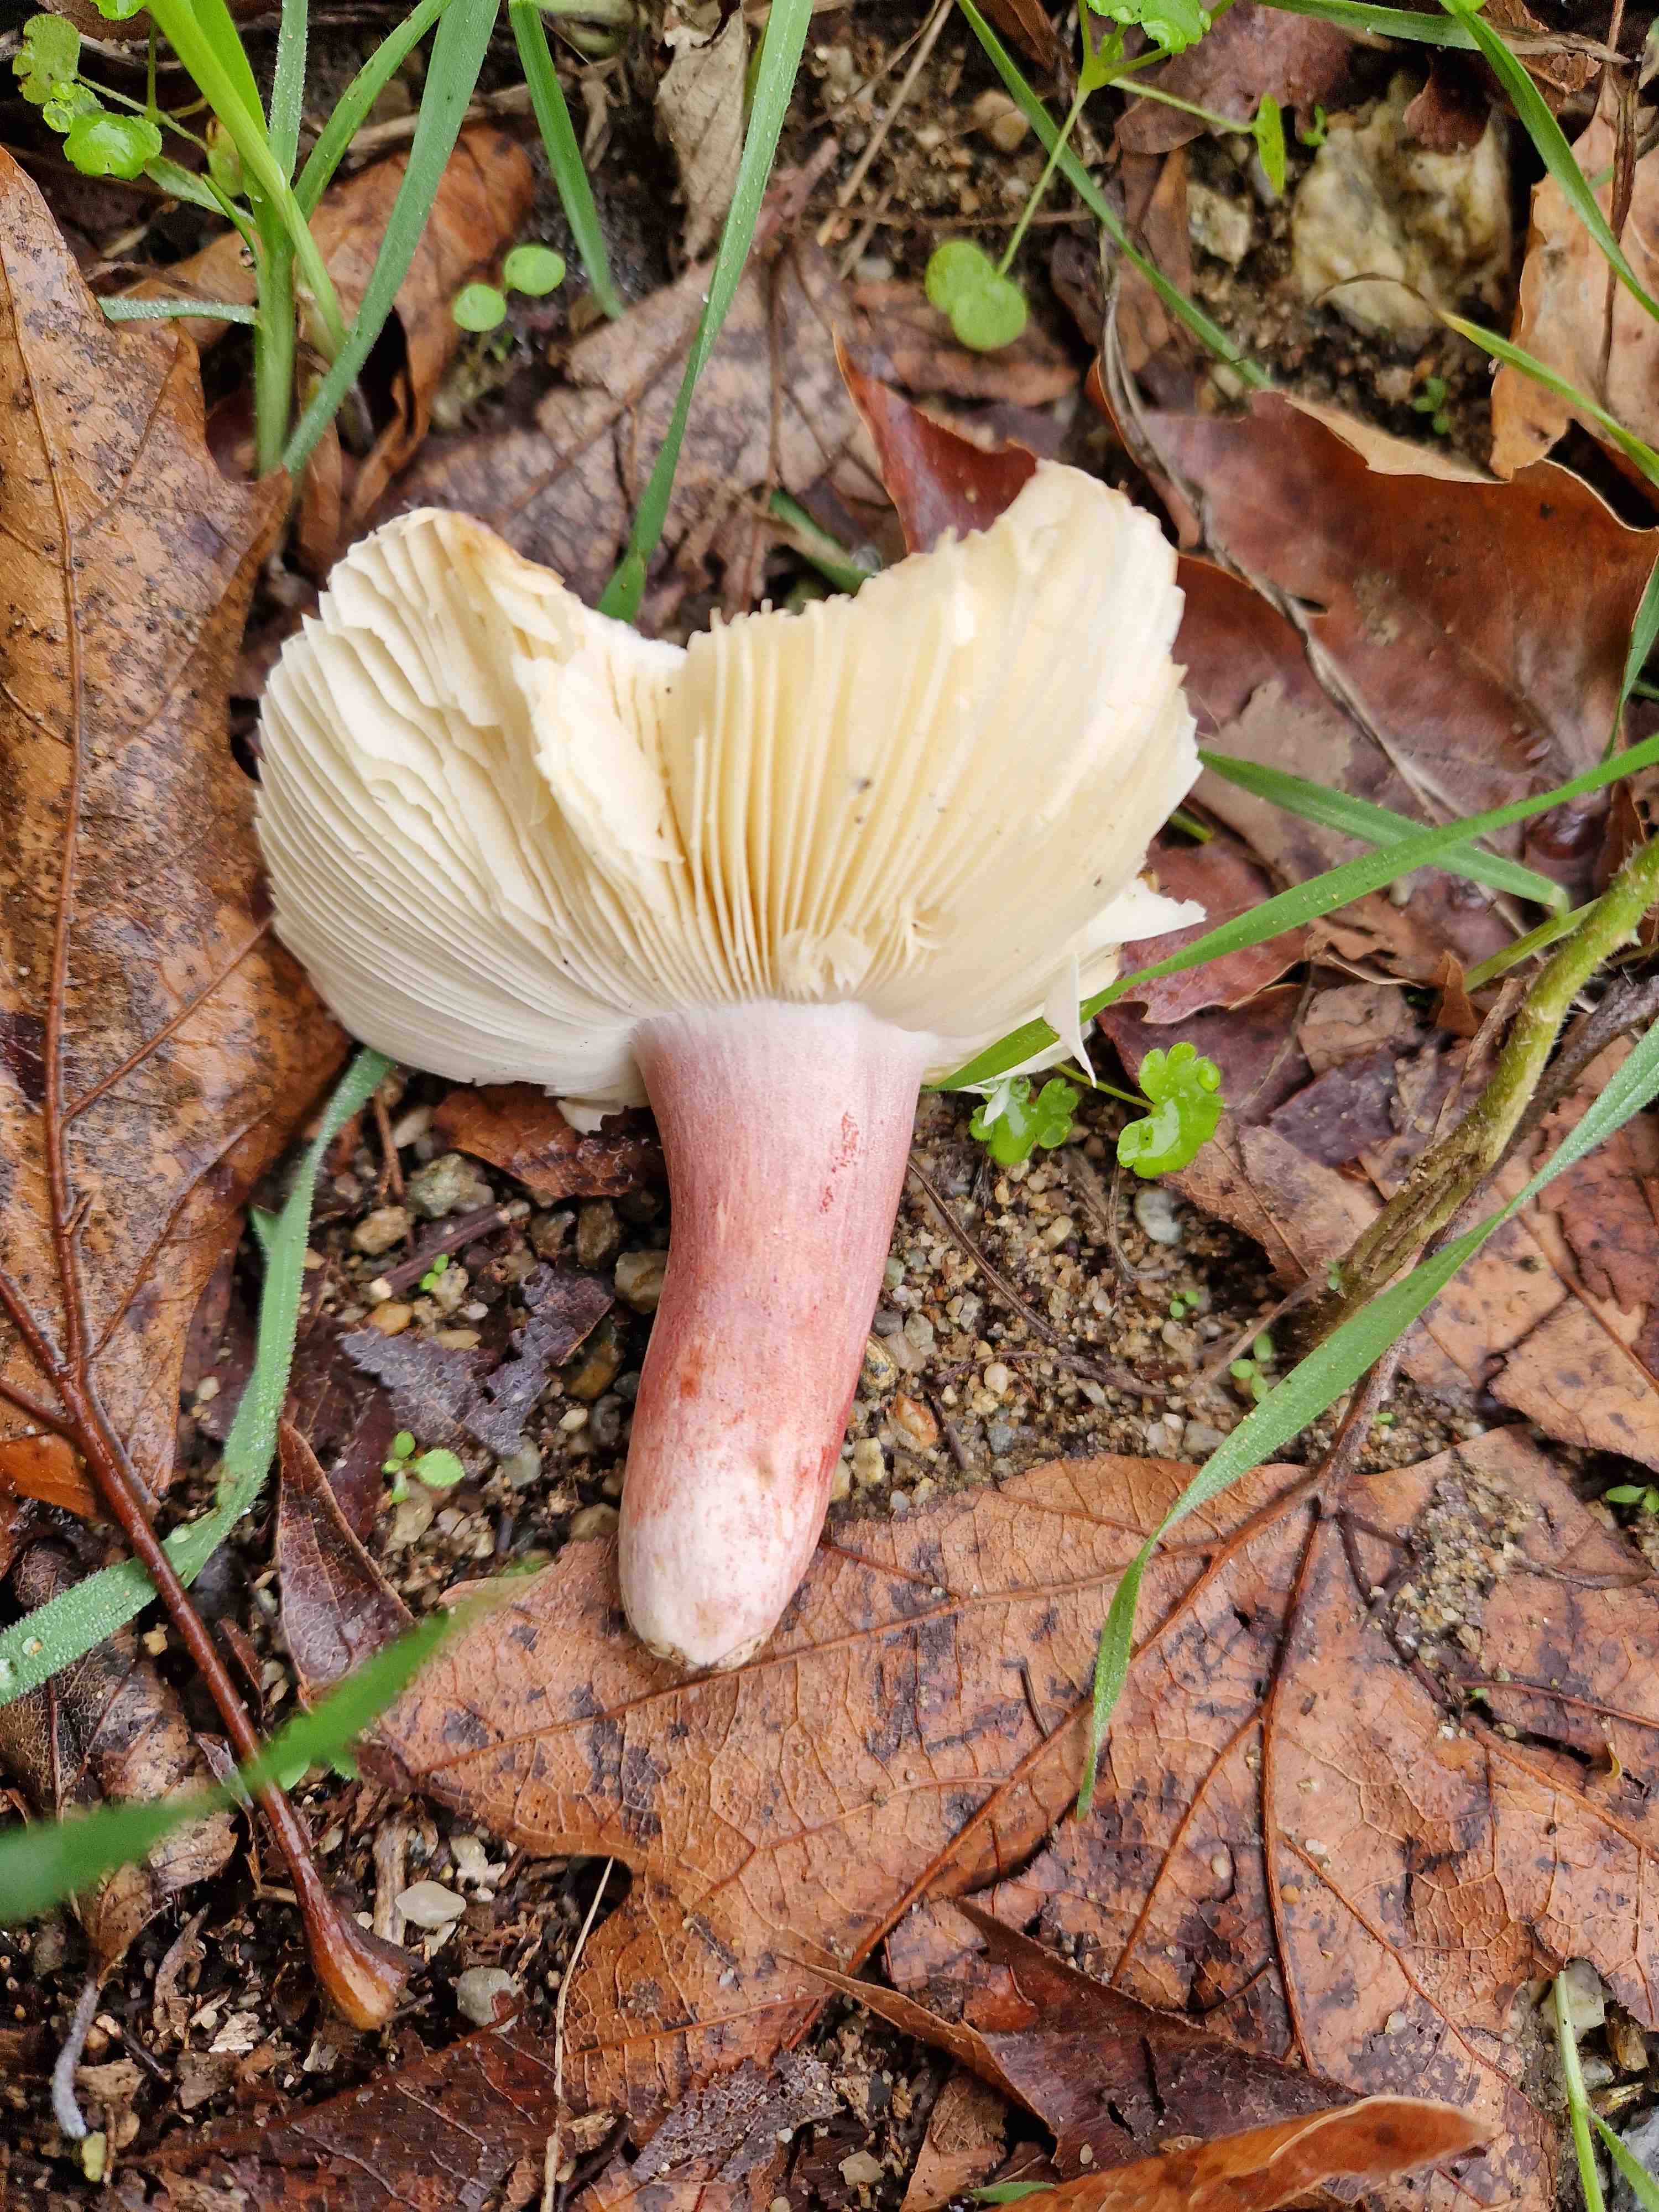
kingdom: Fungi
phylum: Basidiomycota
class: Agaricomycetes
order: Russulales
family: Russulaceae
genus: Russula
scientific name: Russula amoenicolor
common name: skønfodet skørhat
